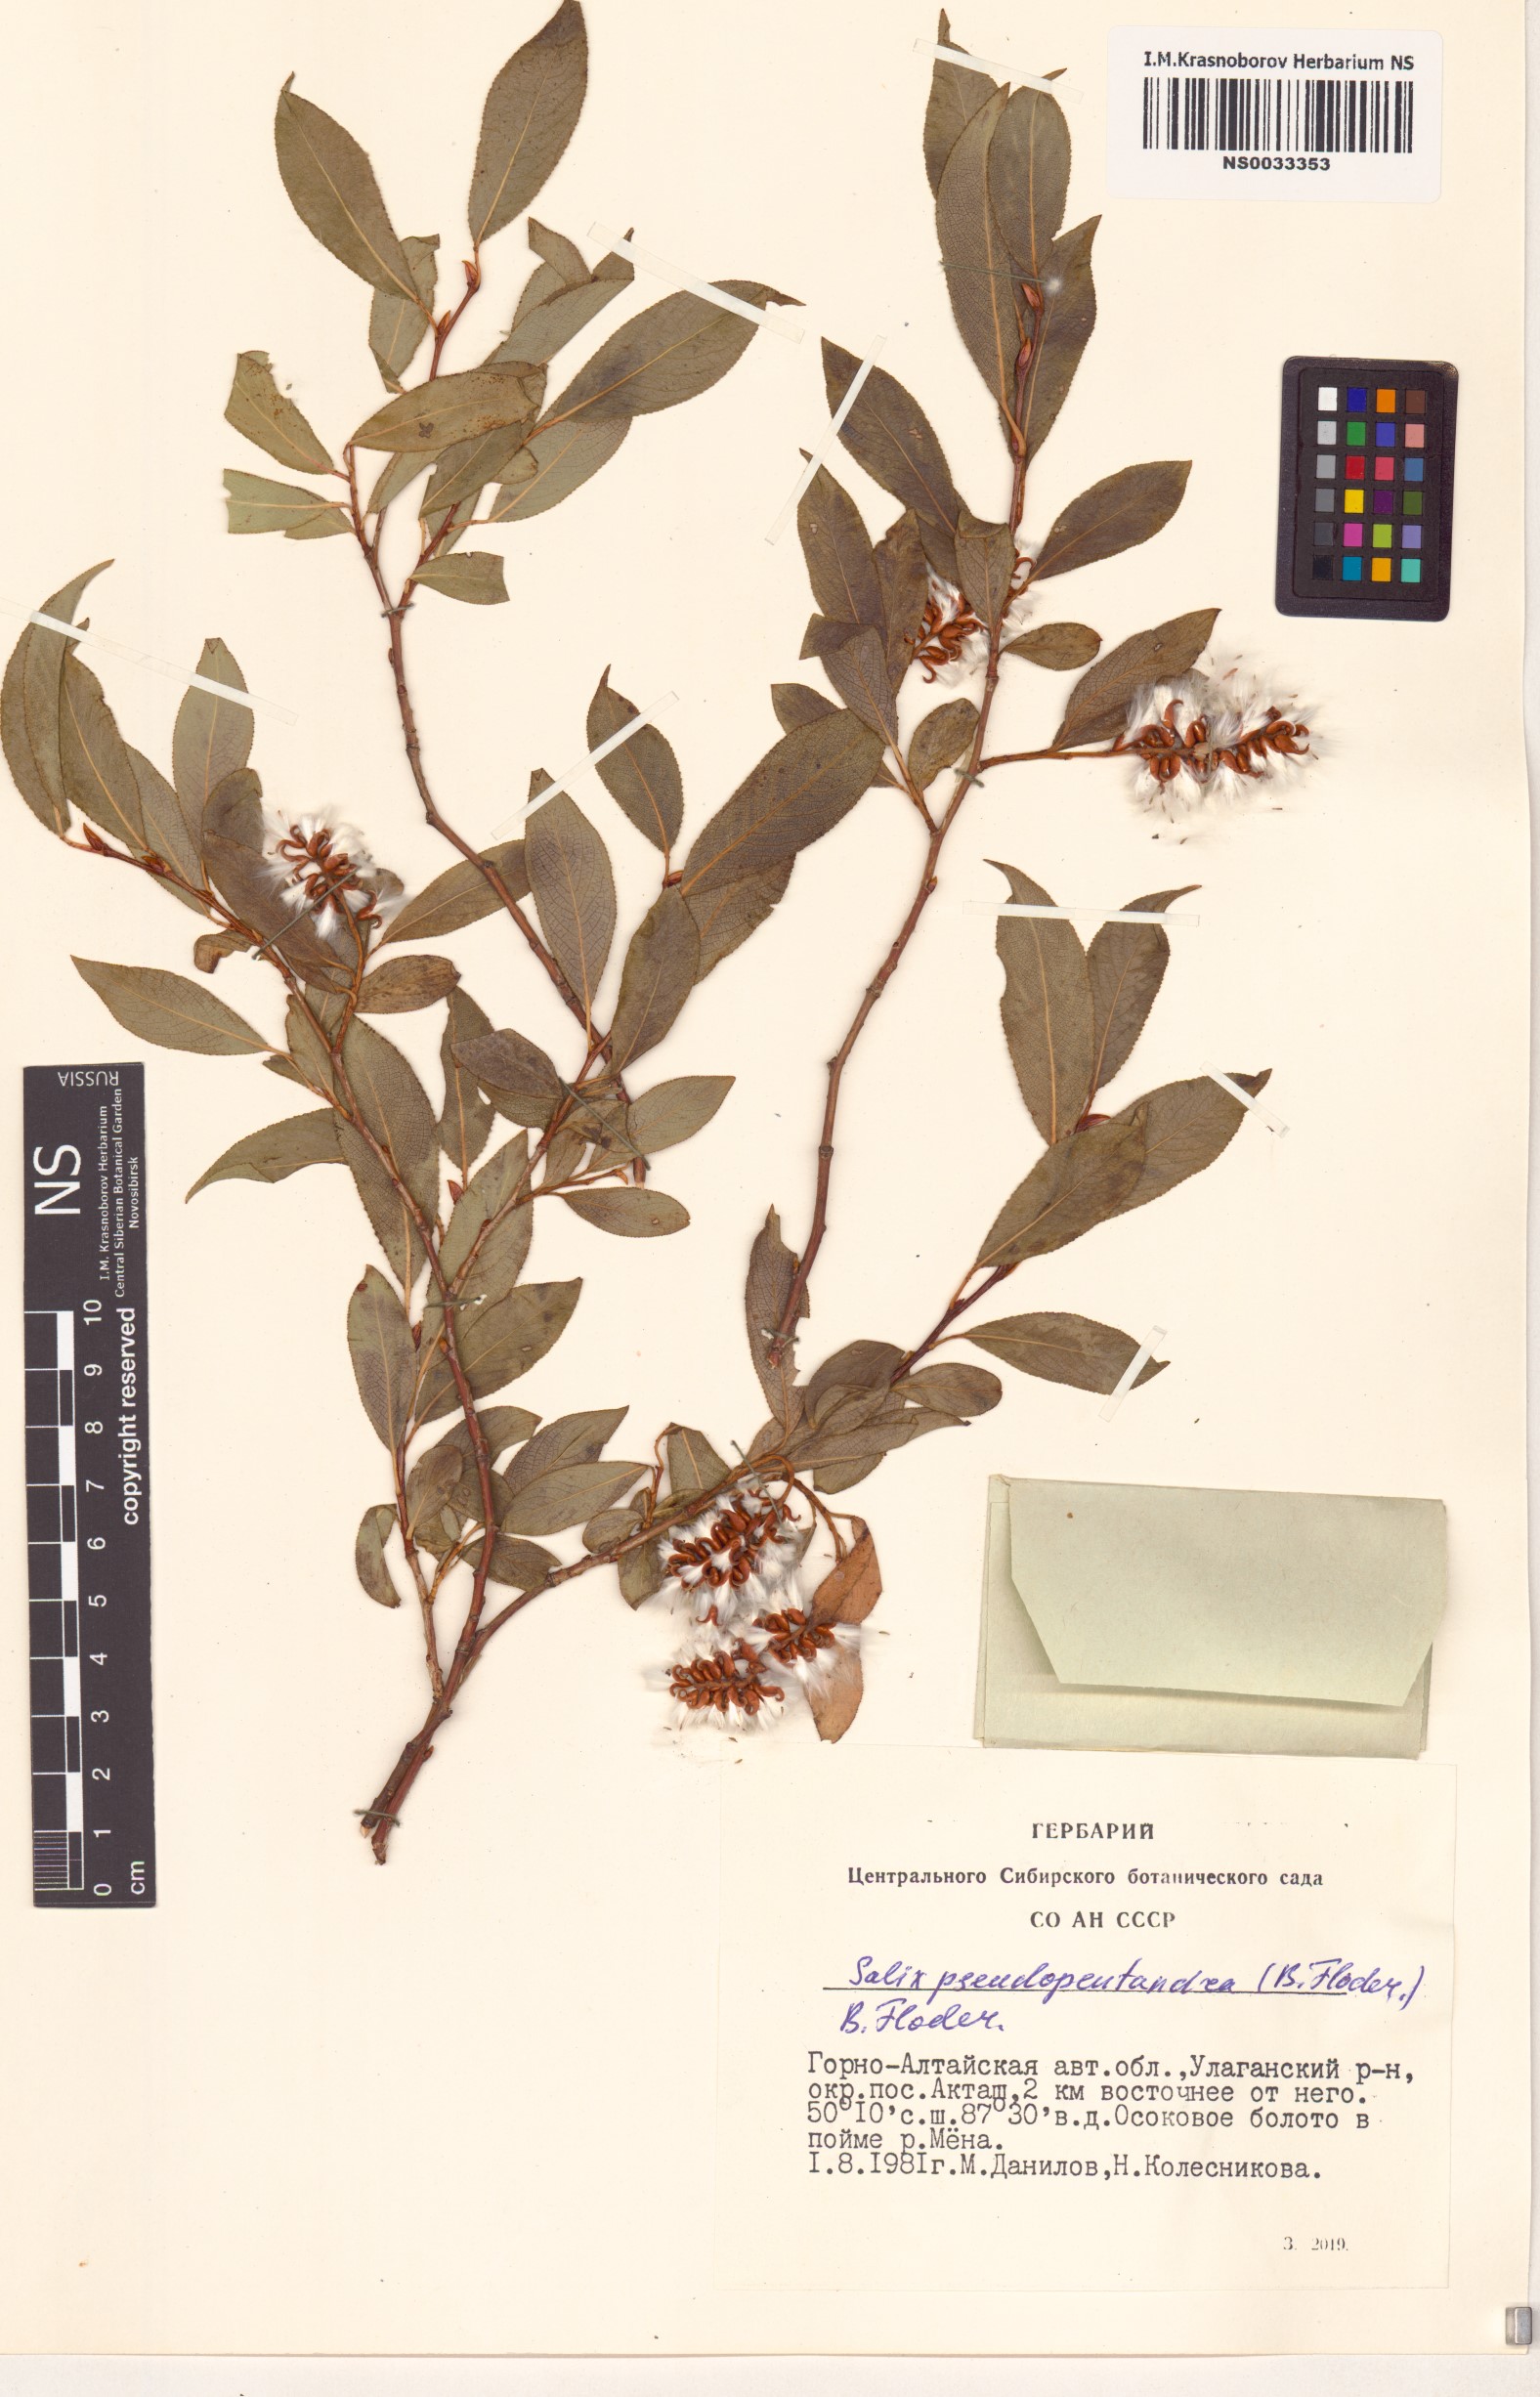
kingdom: Plantae
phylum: Tracheophyta
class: Magnoliopsida
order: Malpighiales
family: Salicaceae
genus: Salix
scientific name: Salix pseudopentandra
